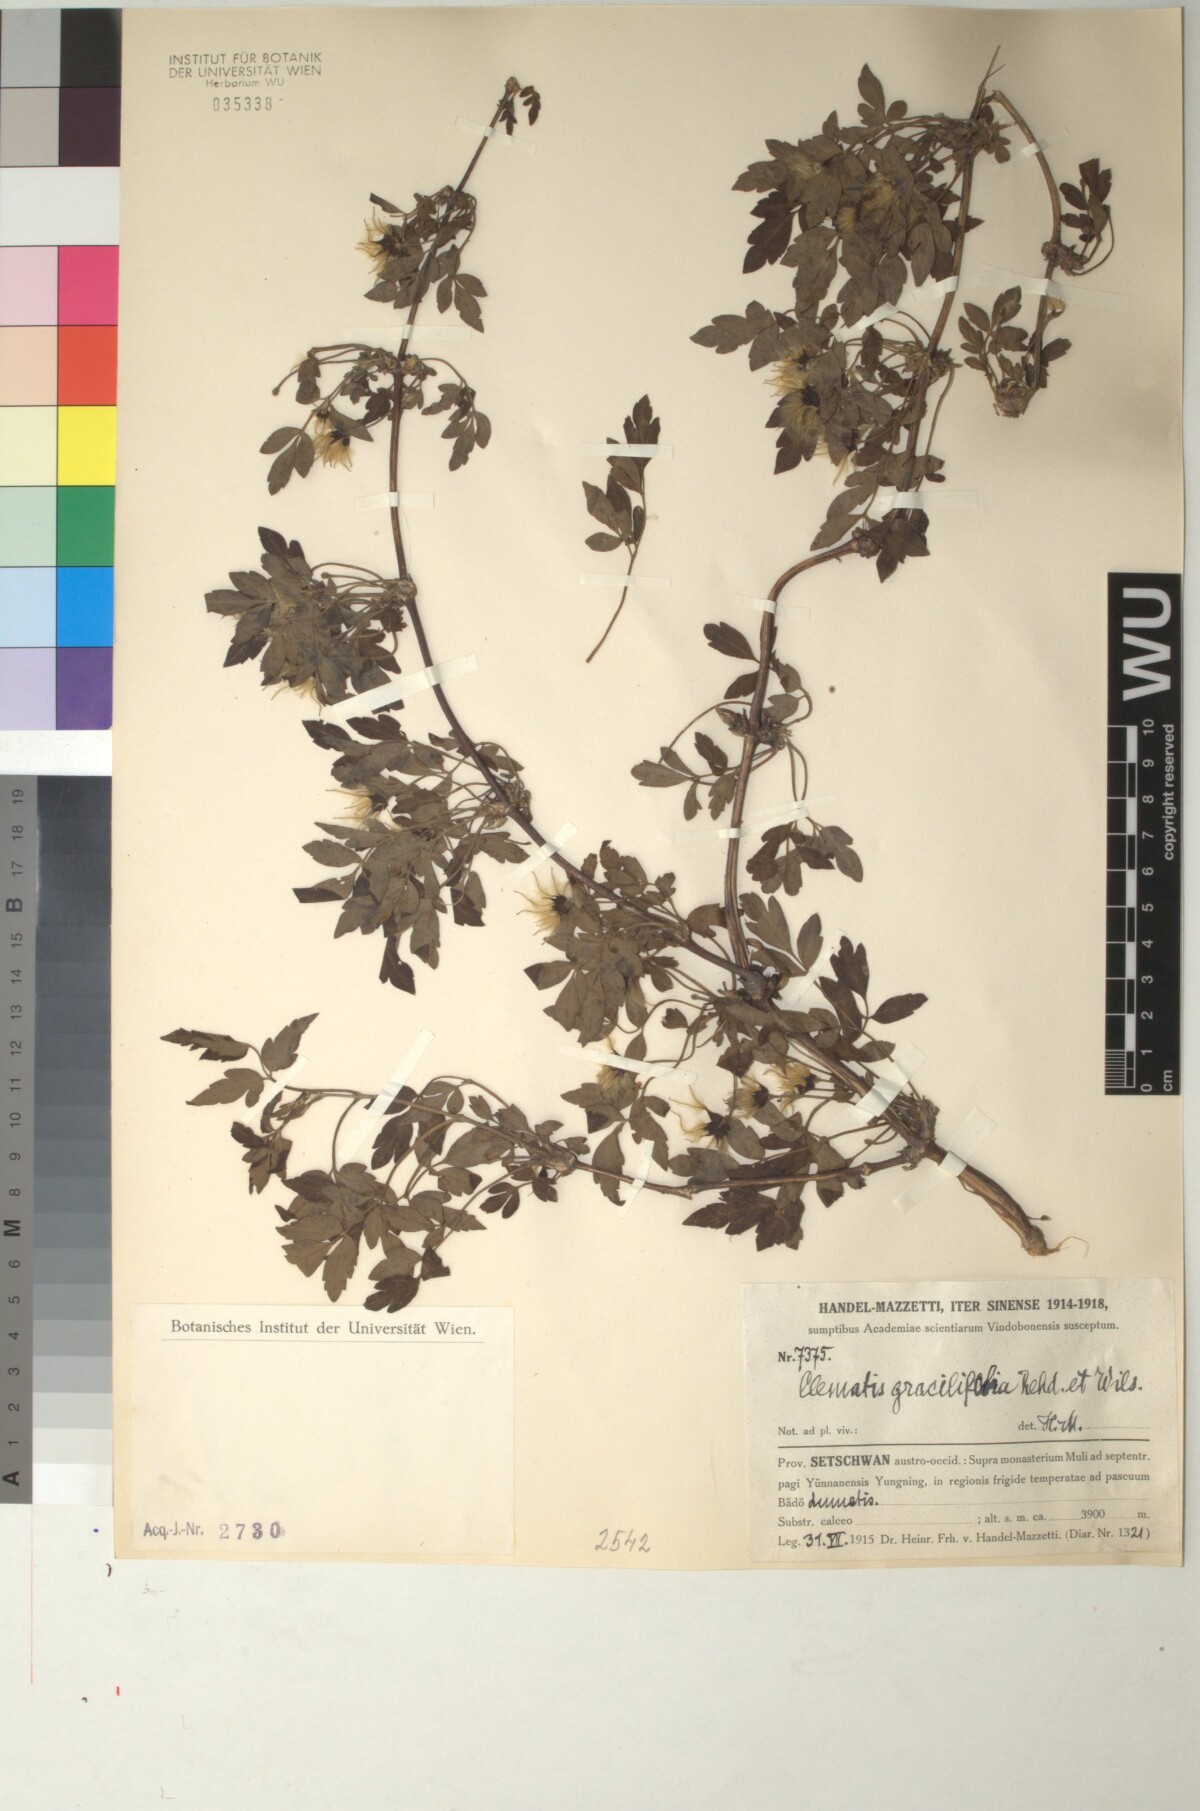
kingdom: Plantae
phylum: Tracheophyta
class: Magnoliopsida
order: Ranunculales
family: Ranunculaceae
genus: Clematis
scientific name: Clematis gracilifolia
